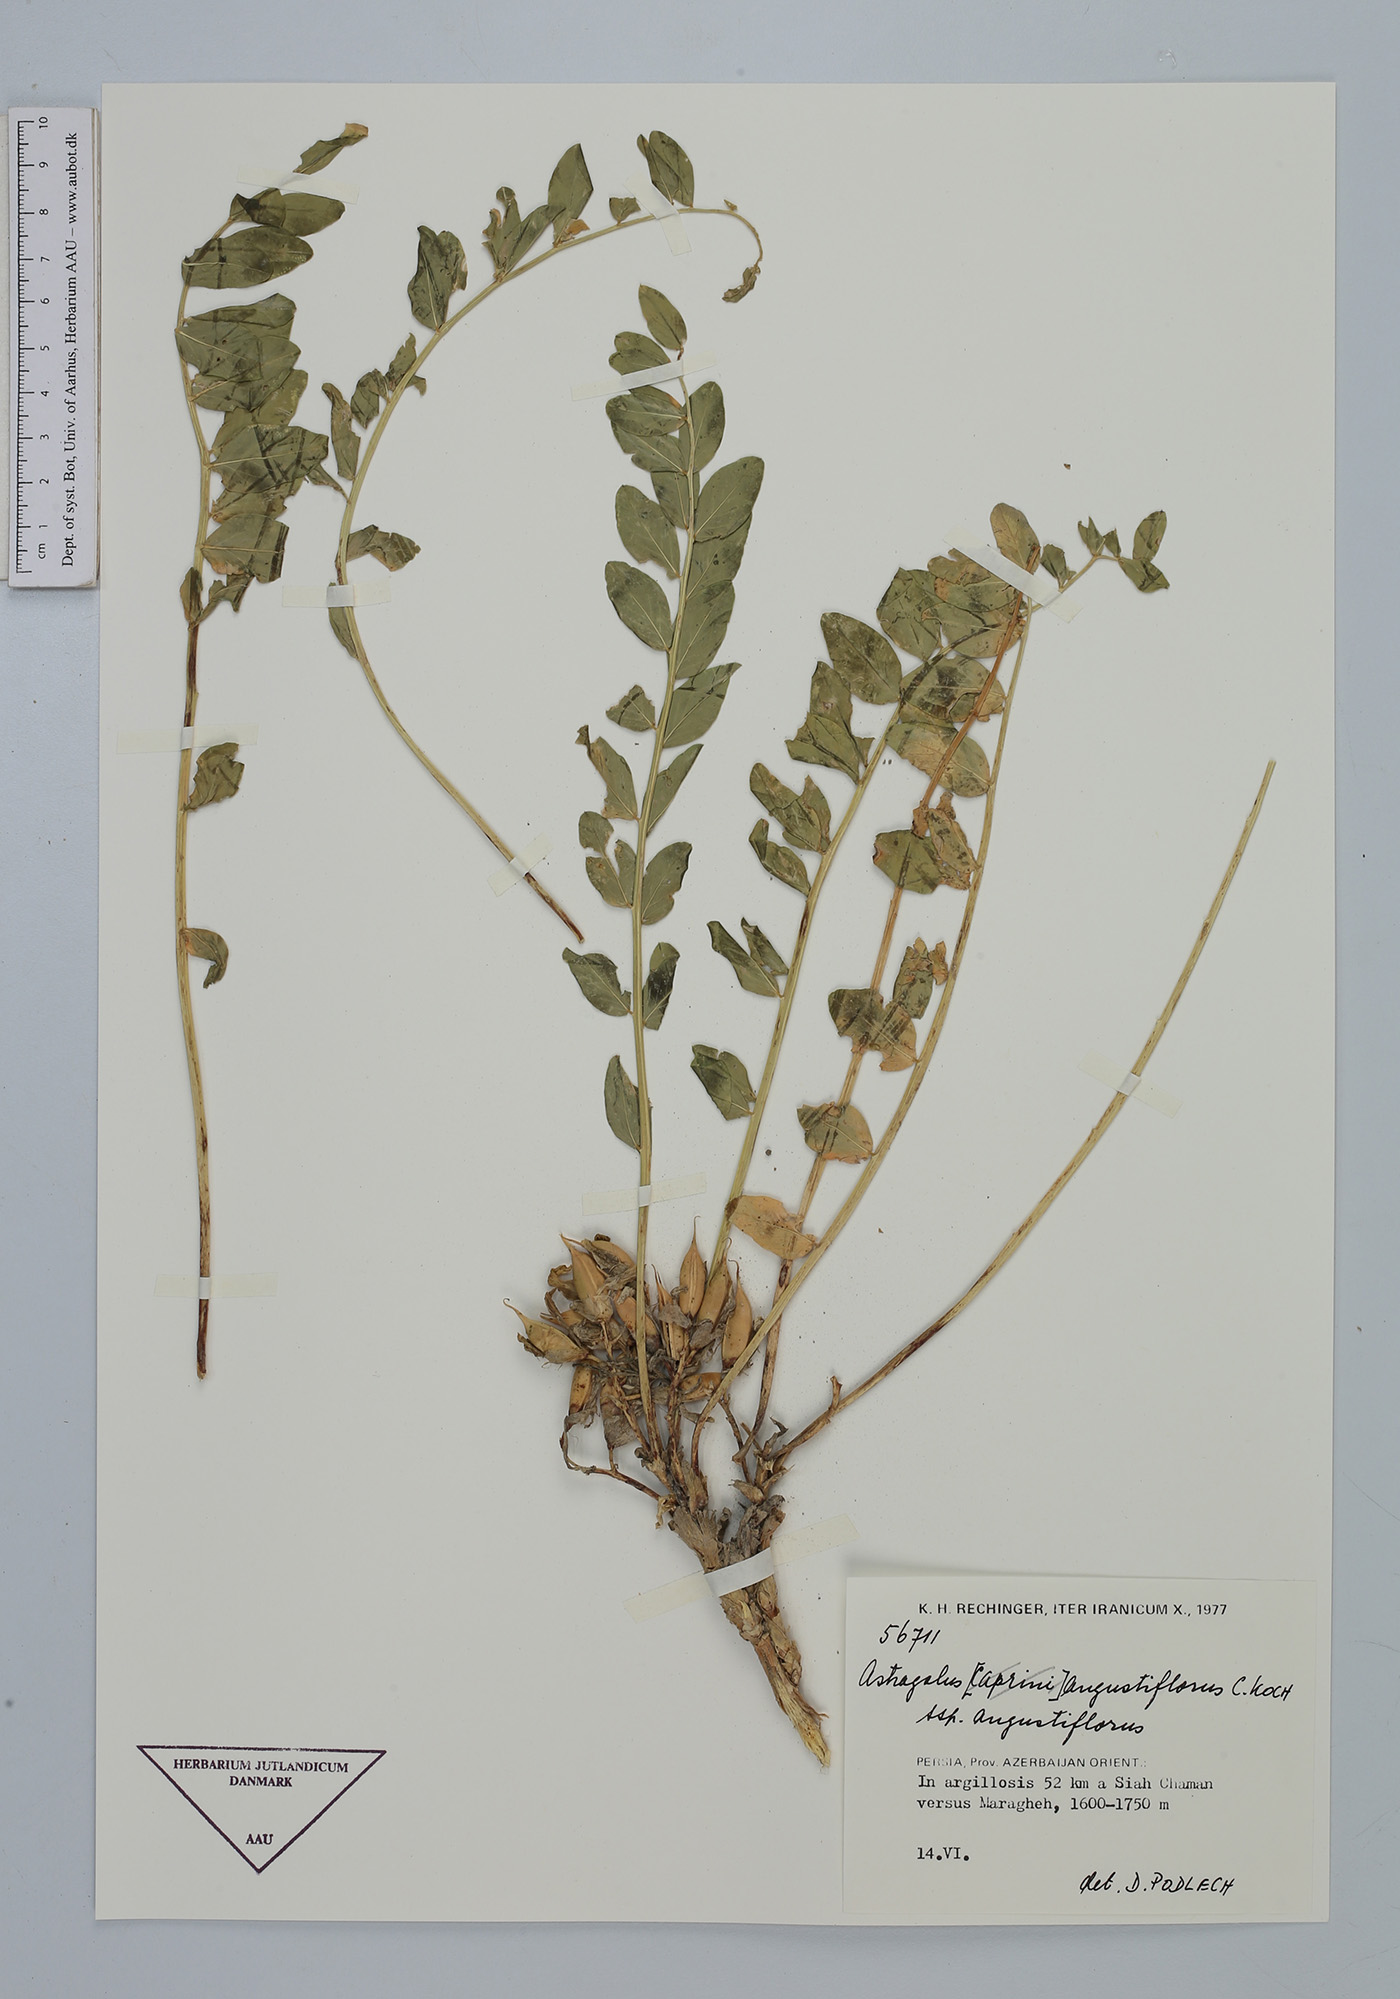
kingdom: Plantae
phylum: Tracheophyta
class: Magnoliopsida
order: Fabales
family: Fabaceae
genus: Astragalus
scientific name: Astragalus angustiflorus
